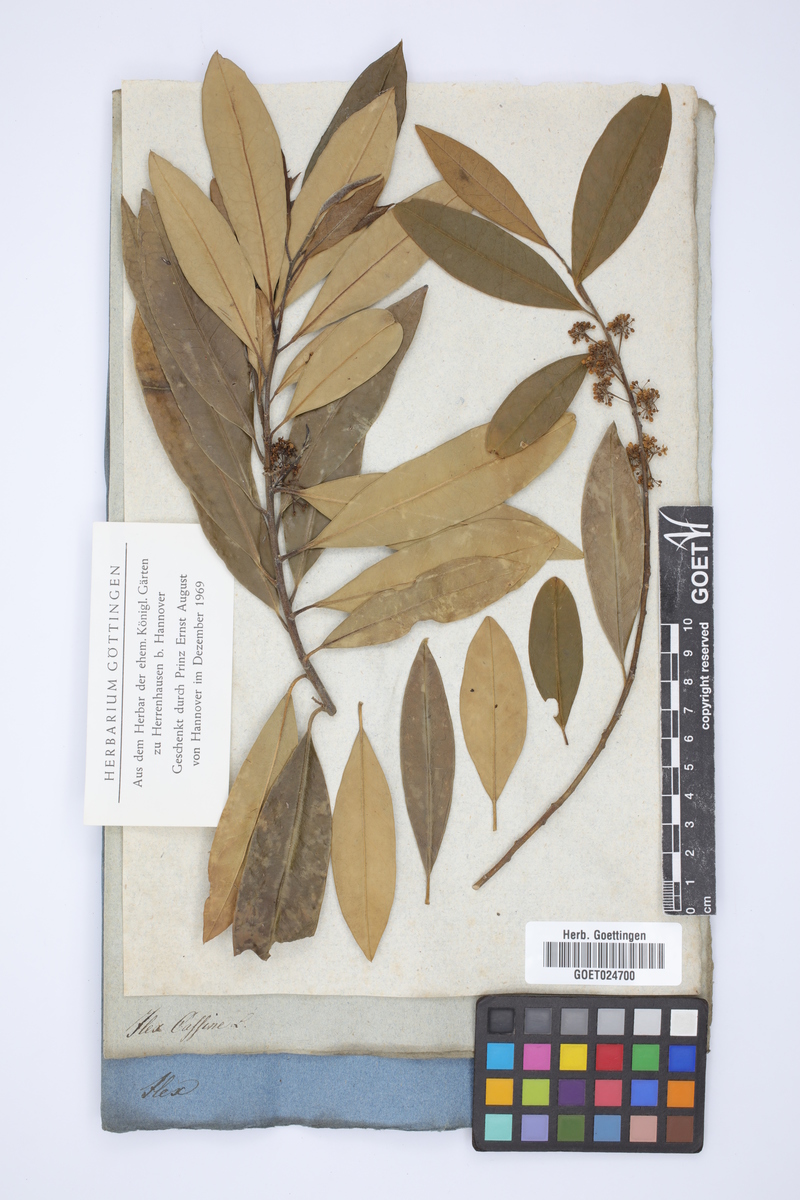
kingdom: Plantae
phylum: Tracheophyta
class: Magnoliopsida
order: Aquifoliales
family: Aquifoliaceae
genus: Ilex
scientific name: Ilex cassine
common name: Dahoon
